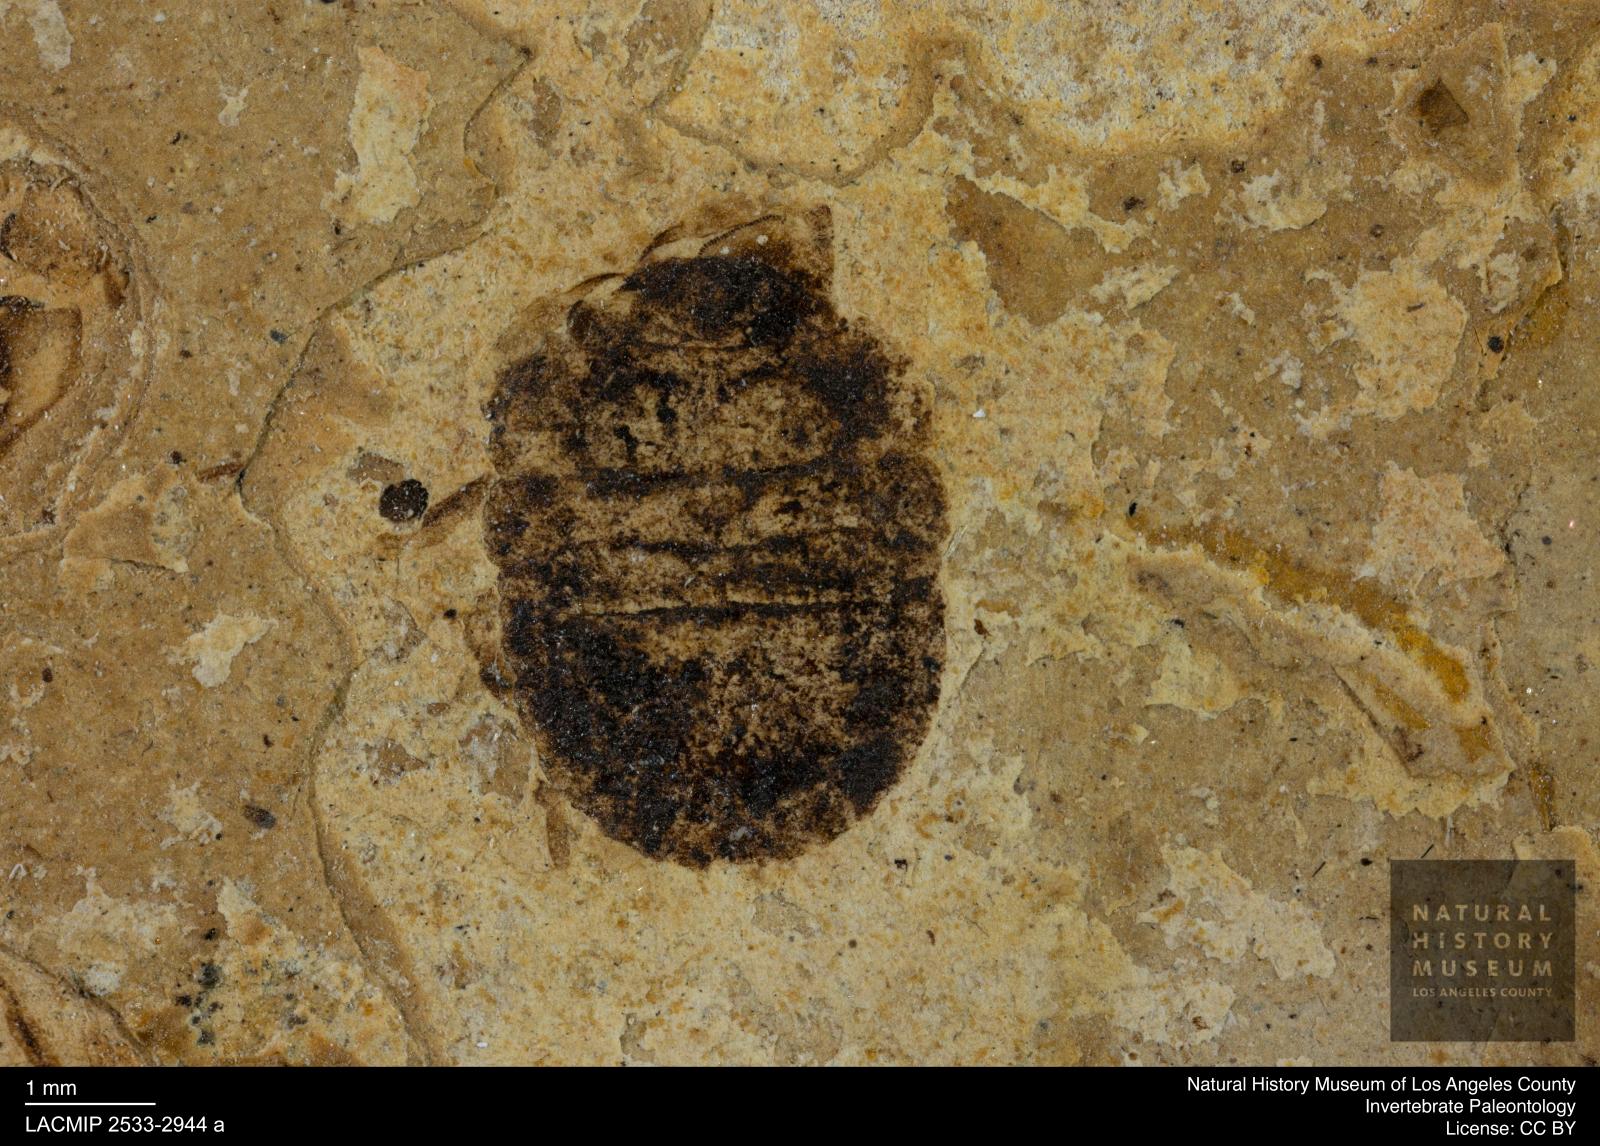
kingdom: Animalia
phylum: Arthropoda
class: Insecta
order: Hemiptera
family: Pentatomidae
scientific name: Pentatomidae
